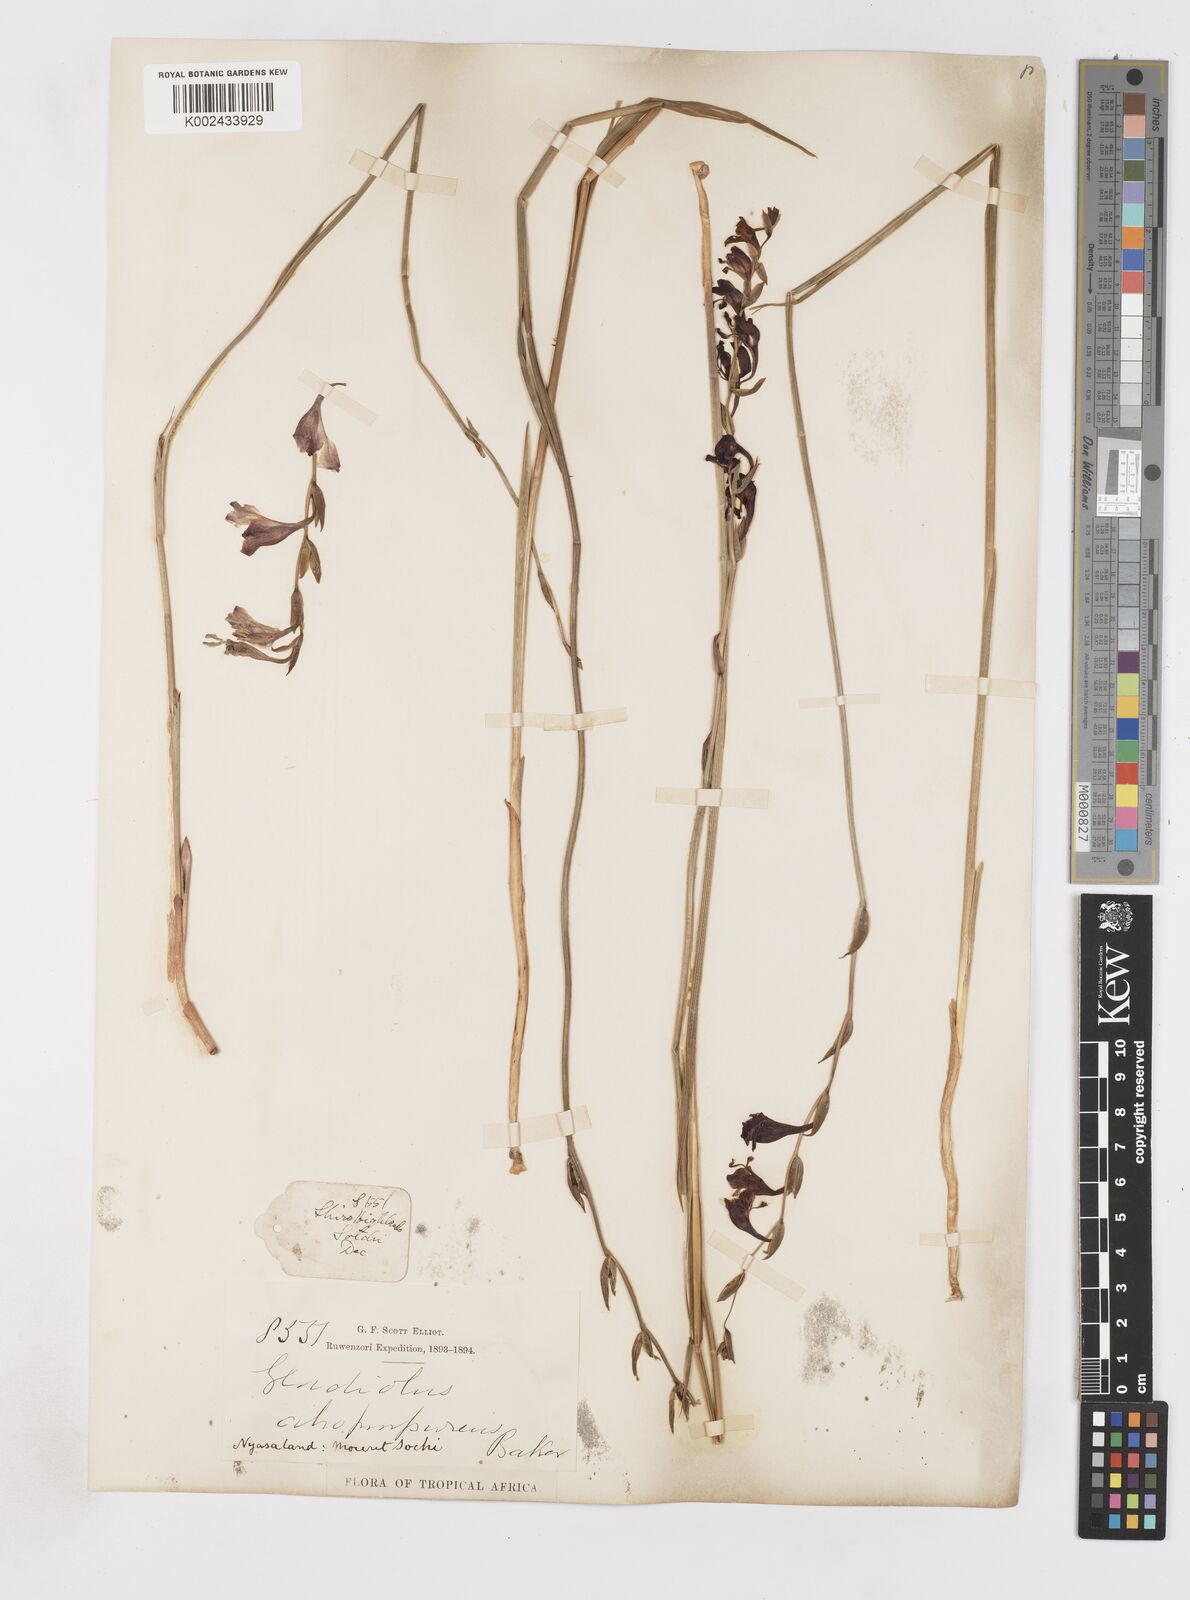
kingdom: Plantae
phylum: Tracheophyta
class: Liliopsida
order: Asparagales
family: Iridaceae
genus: Gladiolus
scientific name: Gladiolus atropurpureus
